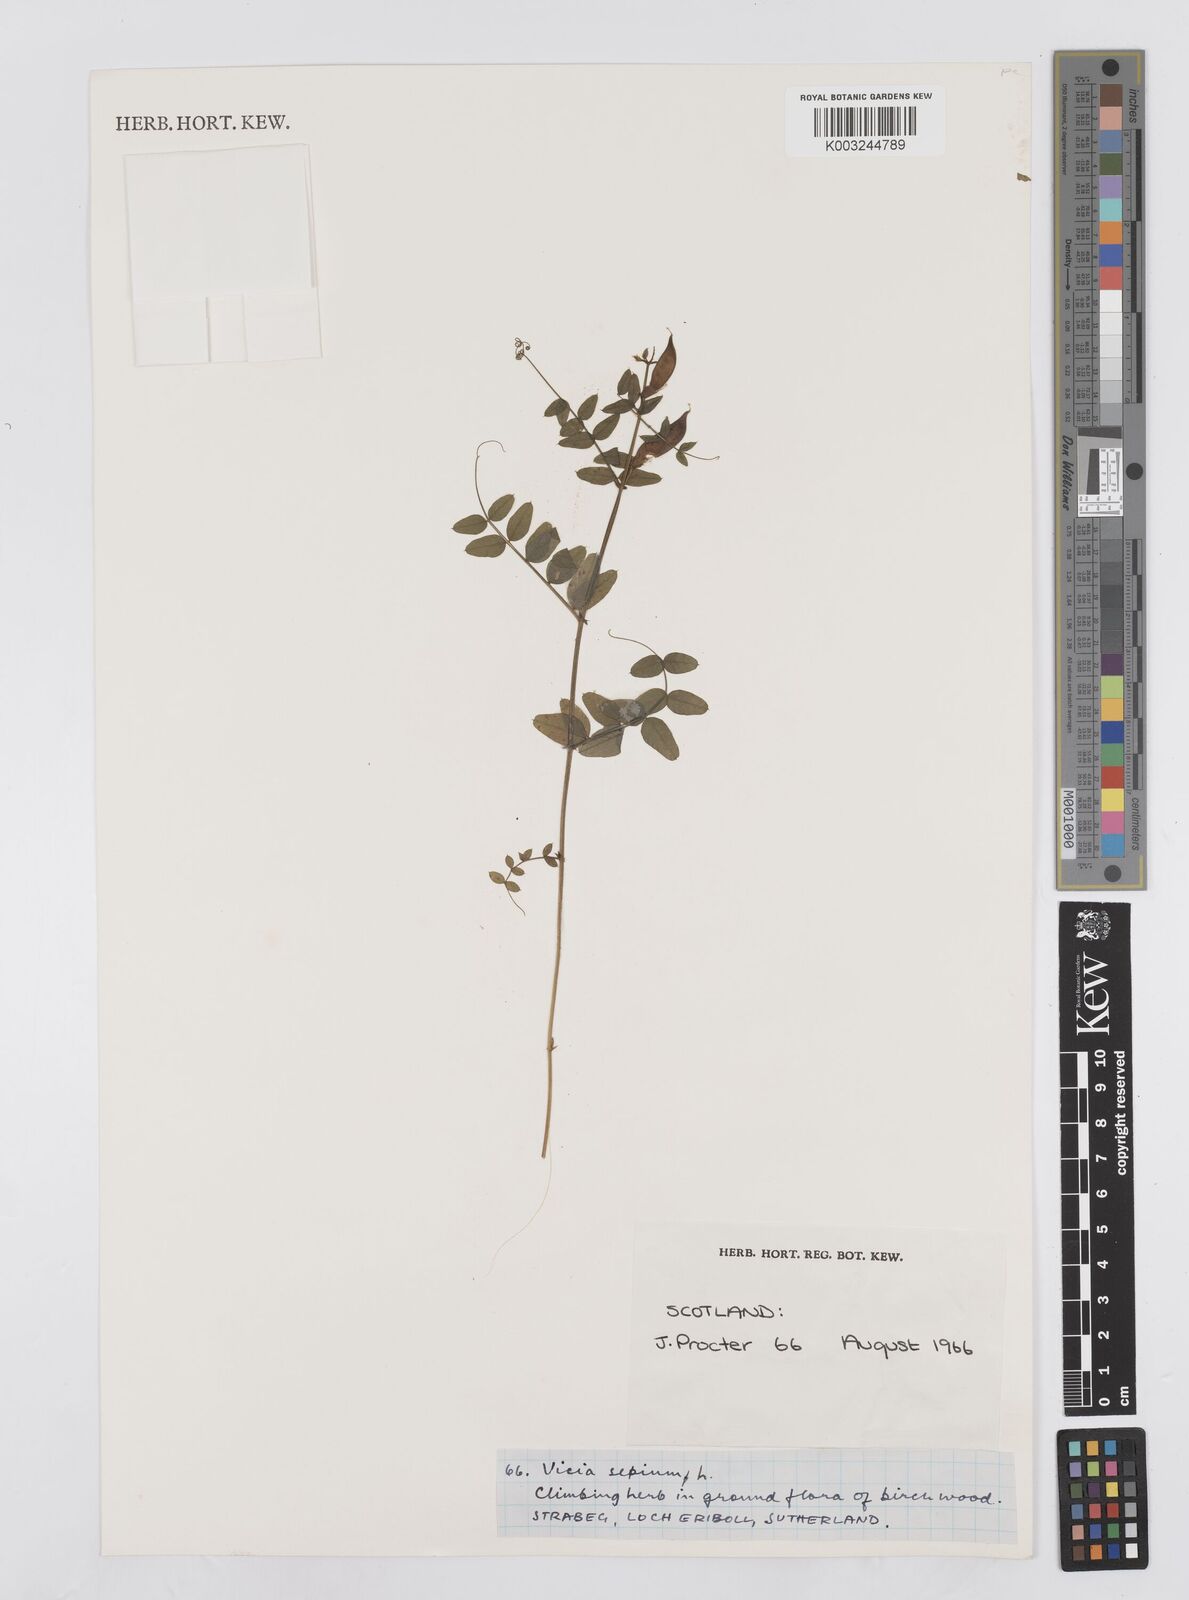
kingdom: Plantae
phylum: Tracheophyta
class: Magnoliopsida
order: Fabales
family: Fabaceae
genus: Vicia
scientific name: Vicia sepium
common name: Bush vetch
